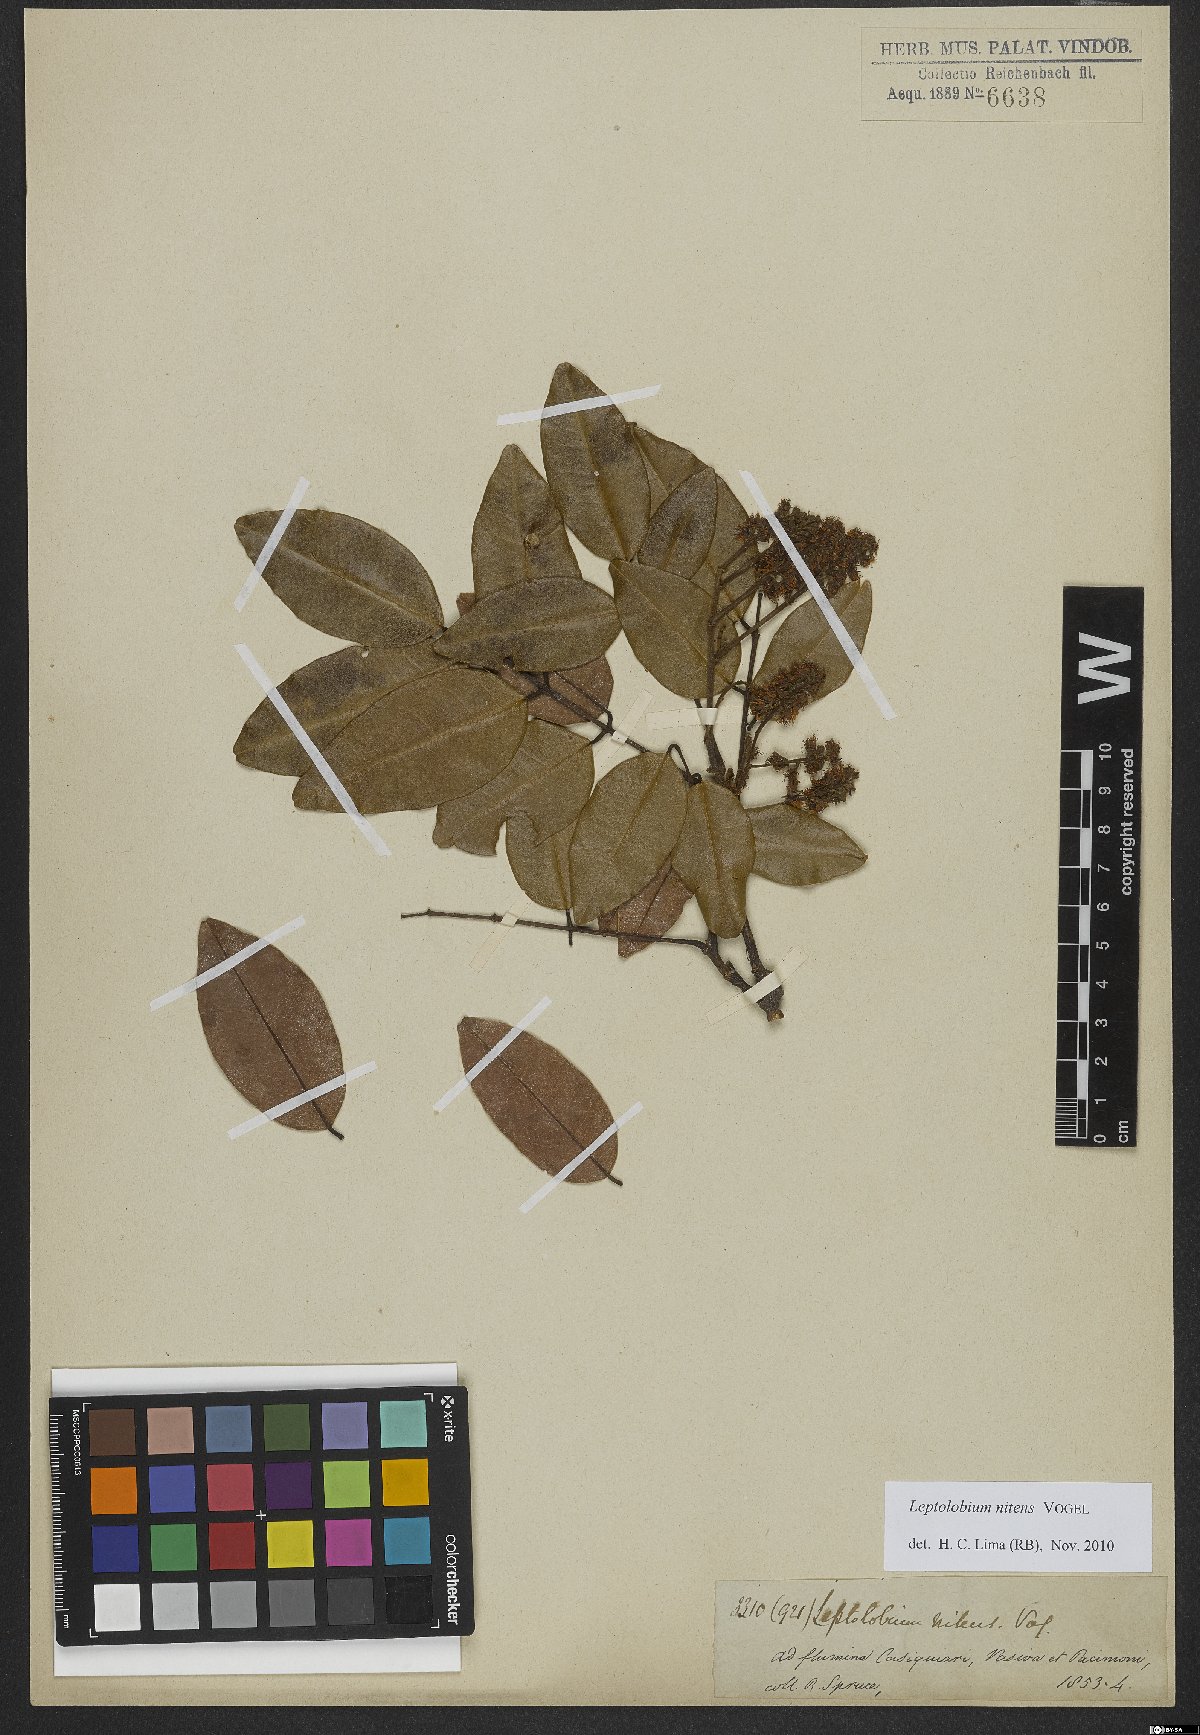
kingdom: Plantae
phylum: Tracheophyta
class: Magnoliopsida
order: Fabales
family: Fabaceae
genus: Leptolobium
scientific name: Leptolobium nitens
